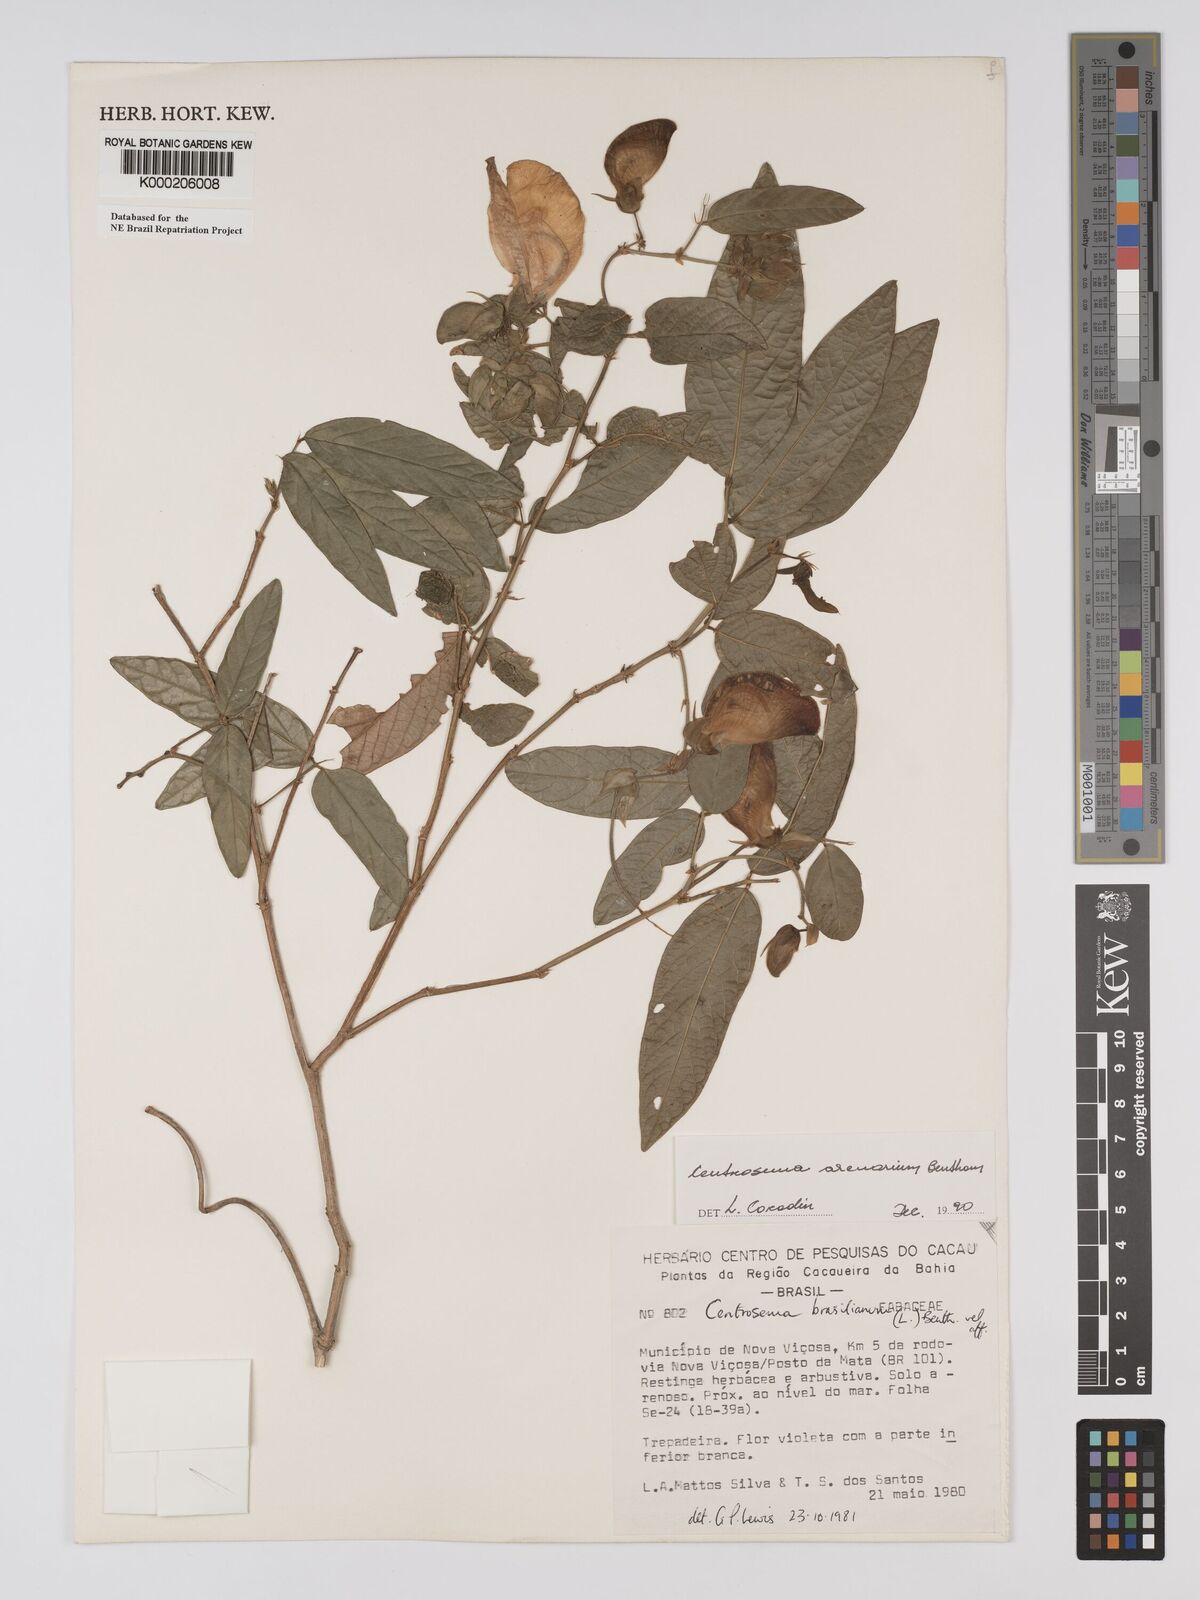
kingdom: Plantae
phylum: Tracheophyta
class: Magnoliopsida
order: Fabales
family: Fabaceae
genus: Centrosema
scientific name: Centrosema arenarium
